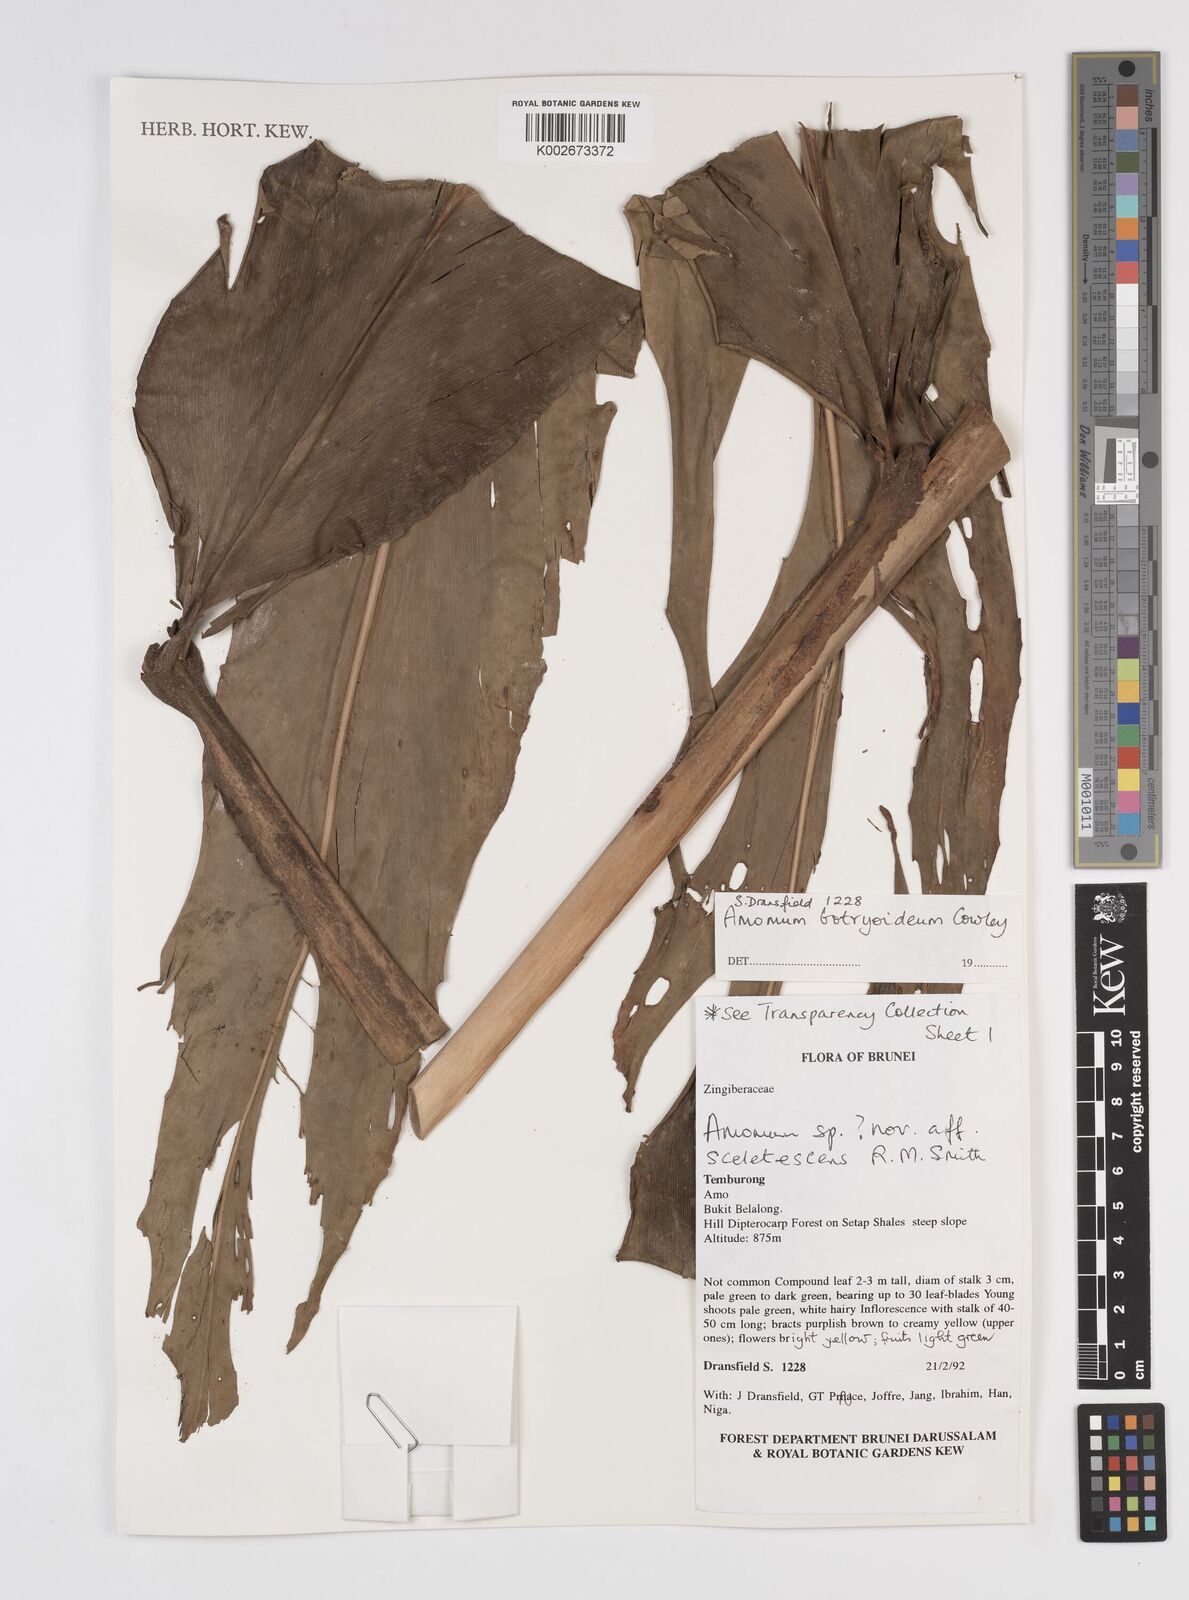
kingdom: Plantae
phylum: Tracheophyta
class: Liliopsida
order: Zingiberales
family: Zingiberaceae
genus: Meistera
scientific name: Meistera botryoidea
